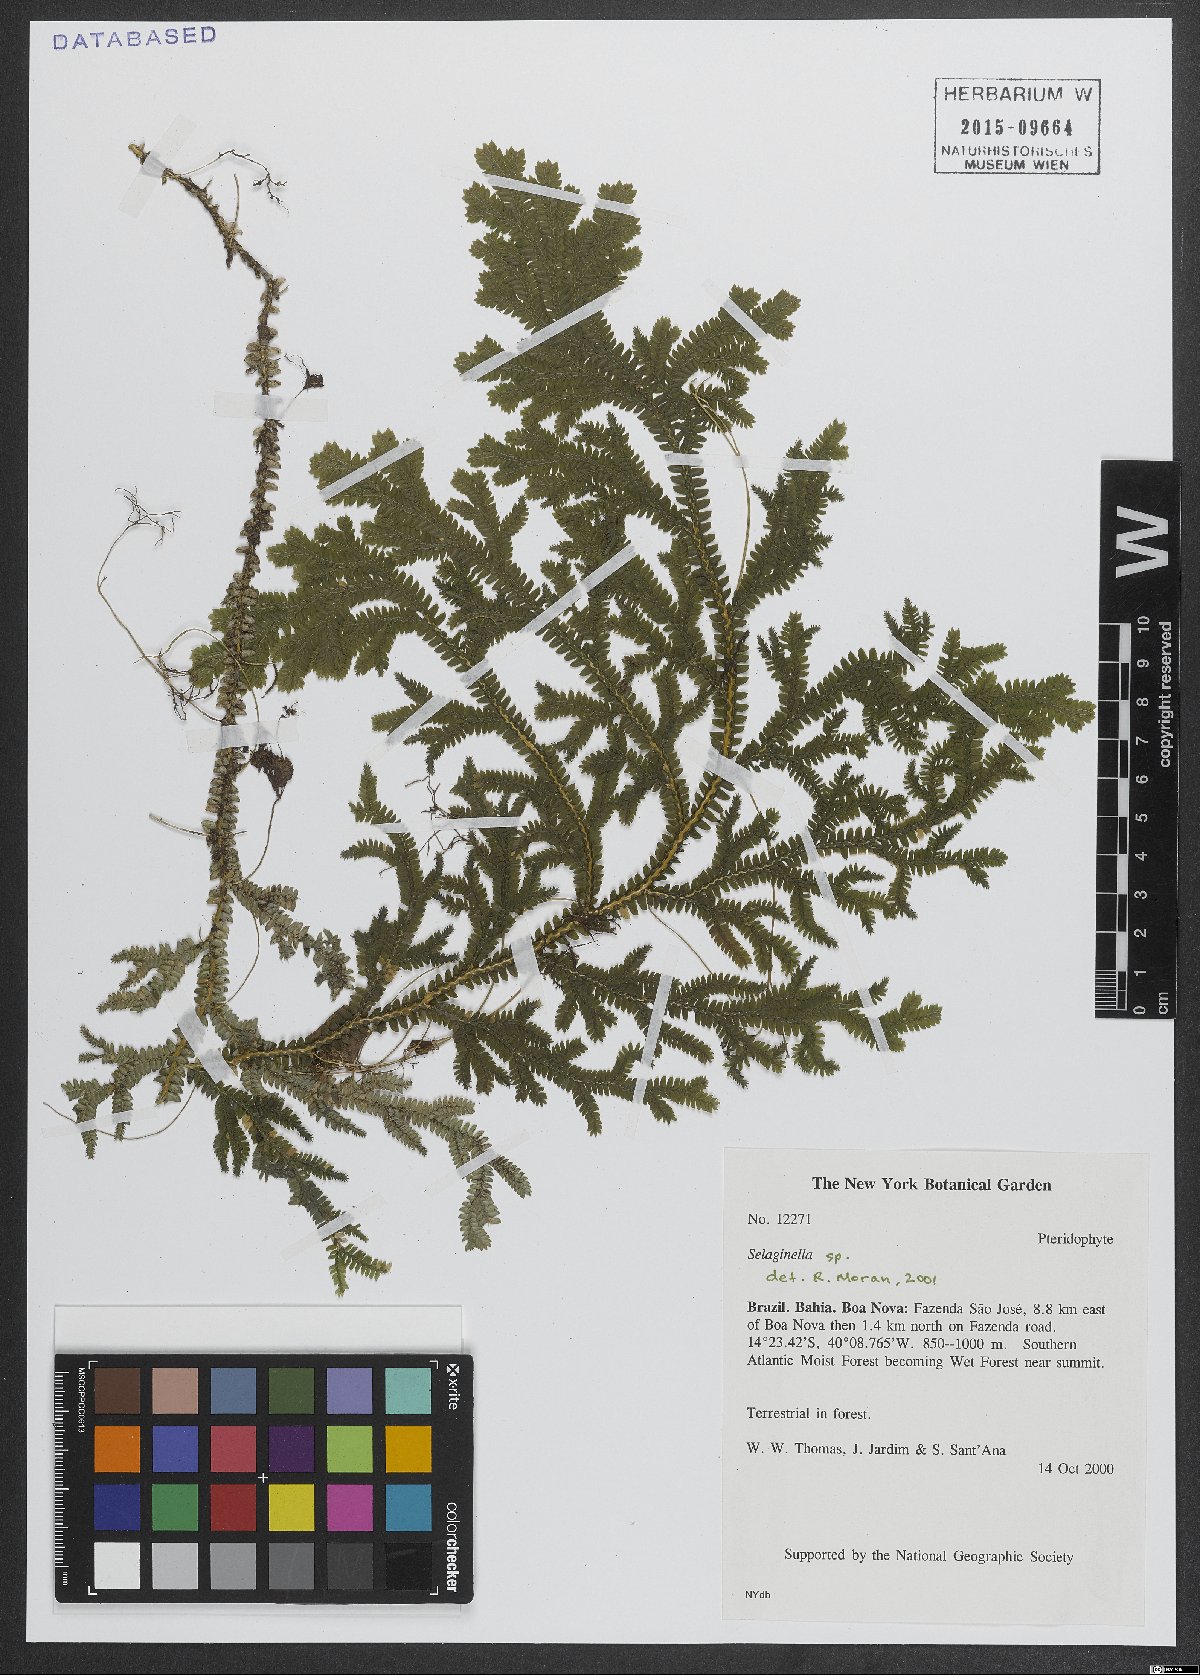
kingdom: Plantae
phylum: Tracheophyta
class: Lycopodiopsida
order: Selaginellales
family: Selaginellaceae
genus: Selaginella
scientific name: Selaginella
